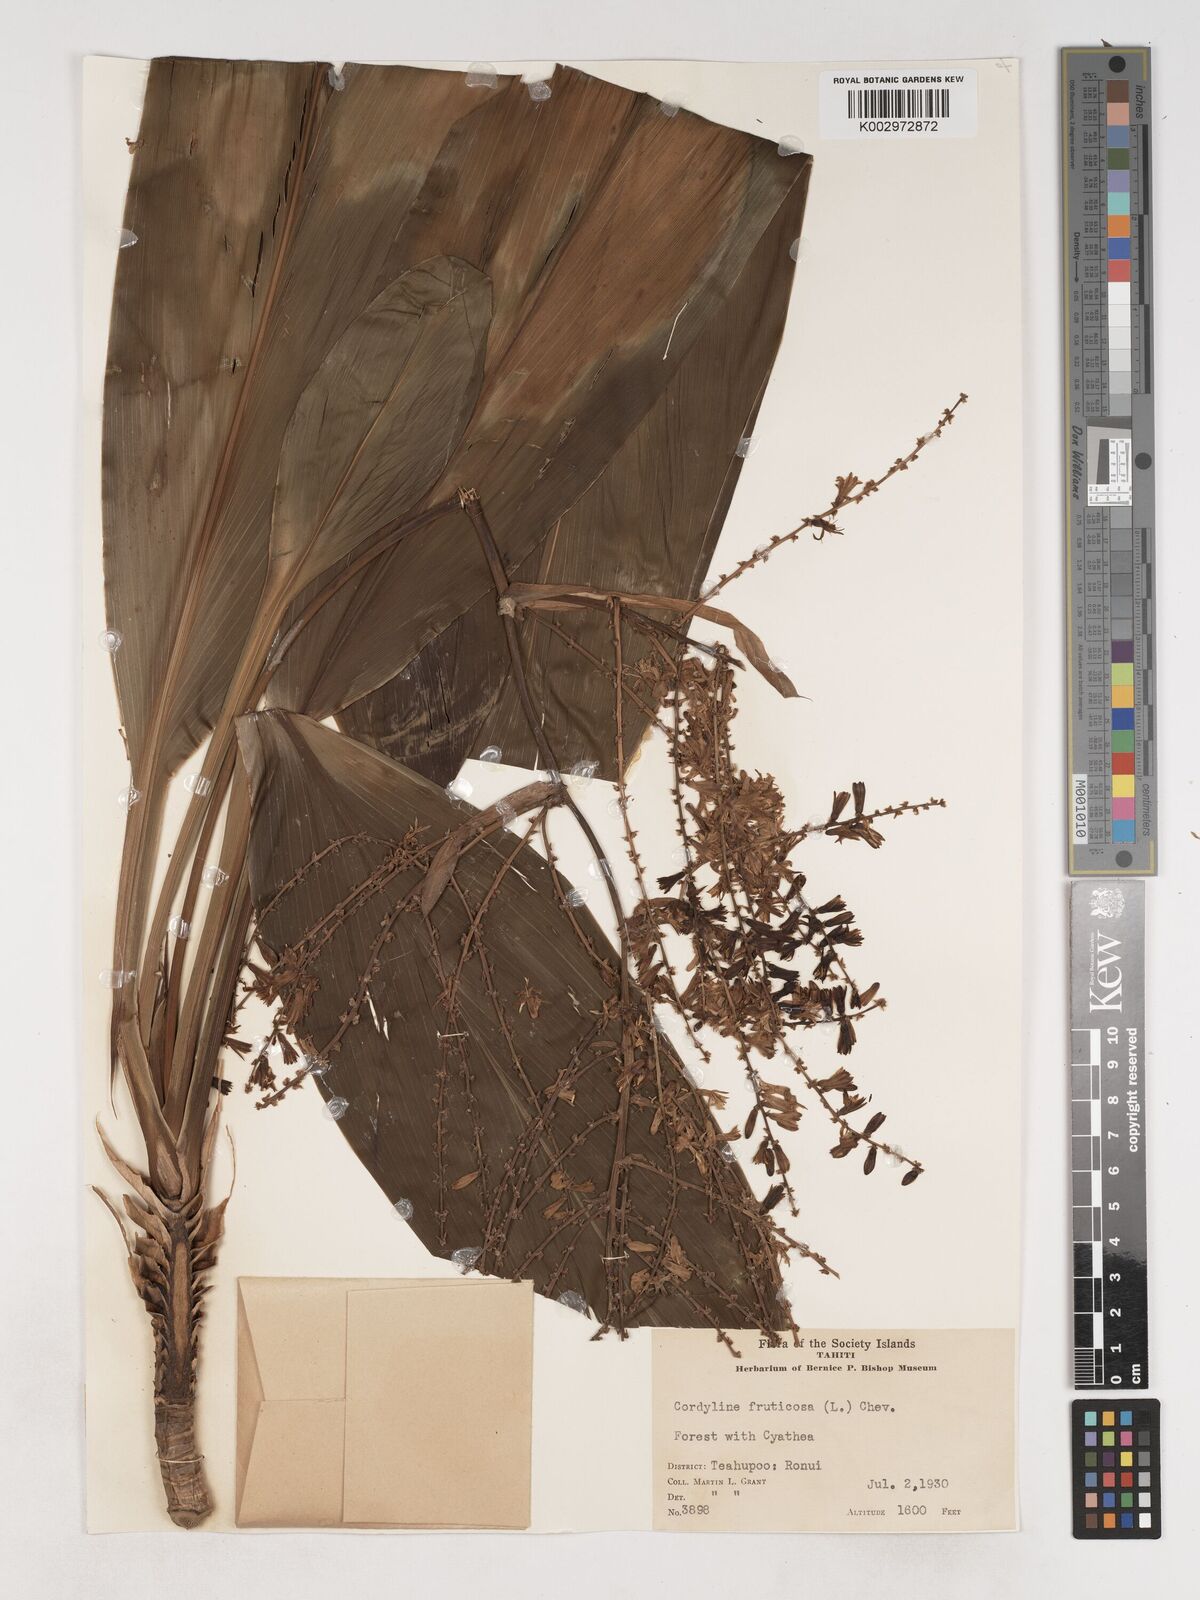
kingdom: Plantae
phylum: Tracheophyta
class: Liliopsida
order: Asparagales
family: Asparagaceae
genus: Cordyline
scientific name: Cordyline fruticosa
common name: Good-luck-plant
